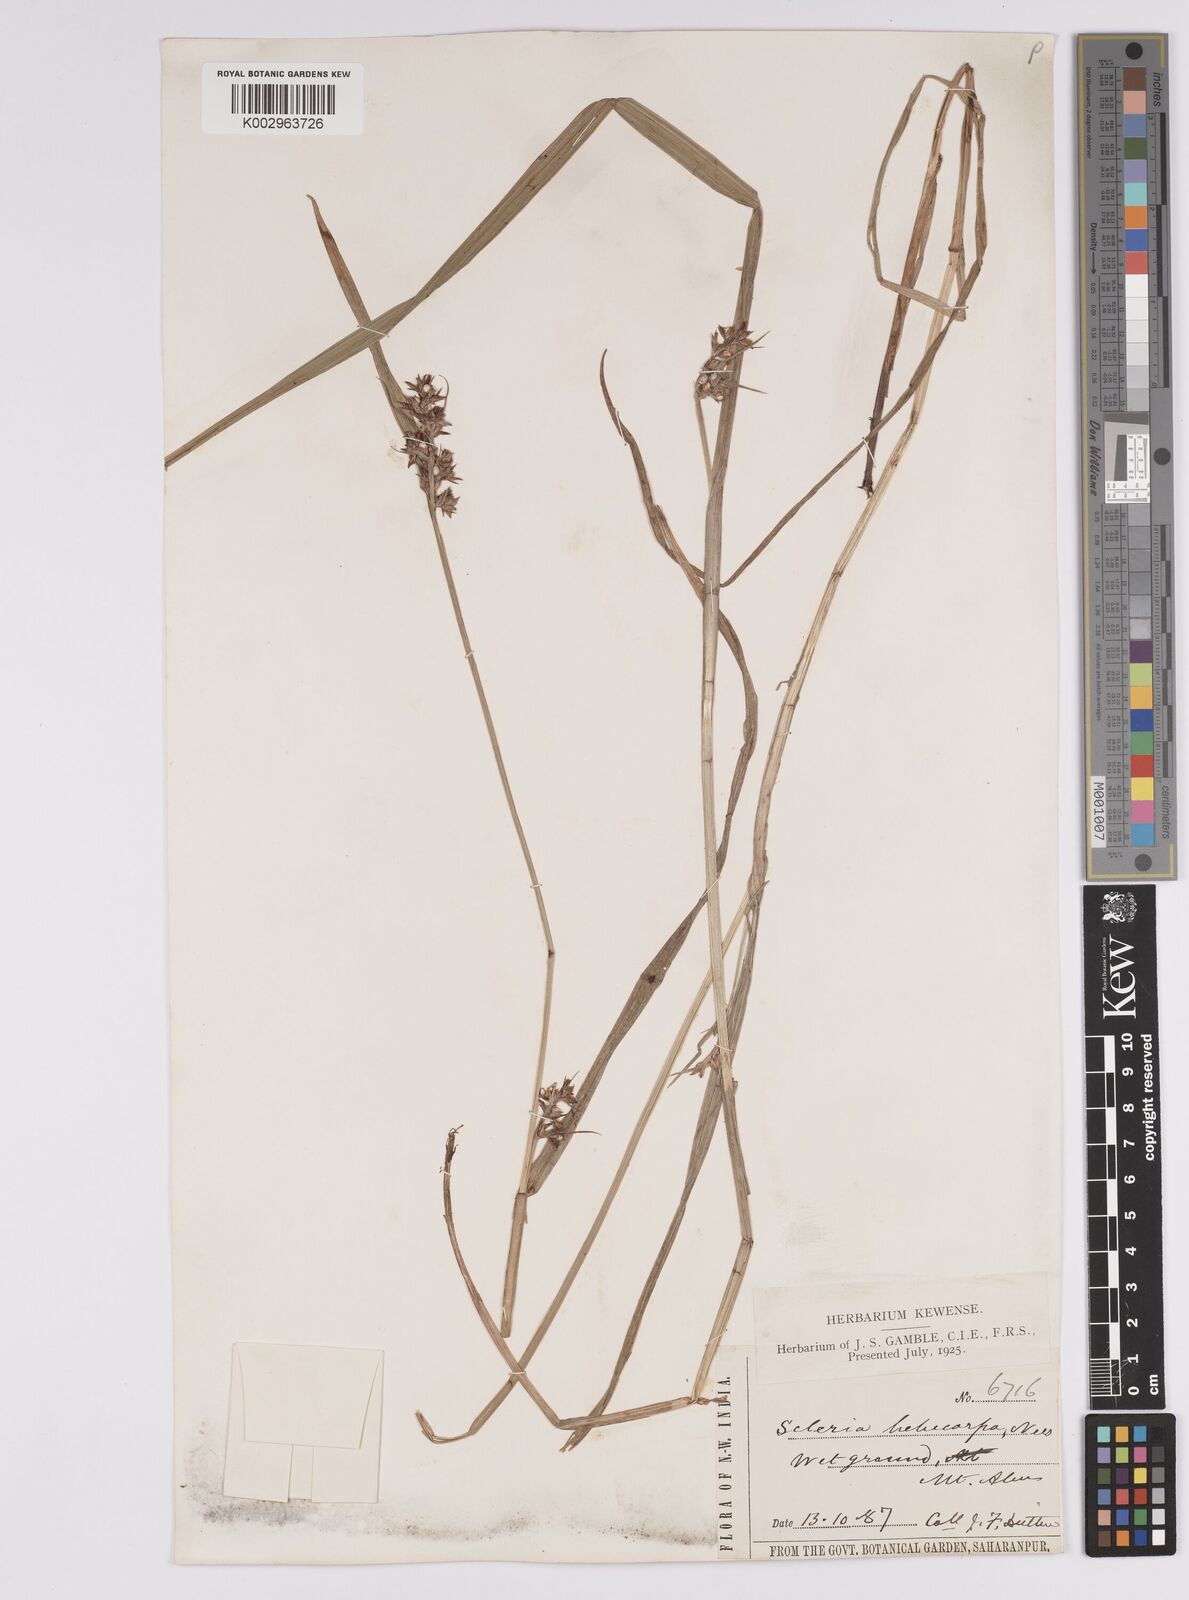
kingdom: Plantae
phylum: Tracheophyta
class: Liliopsida
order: Poales
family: Cyperaceae
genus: Scleria
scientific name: Scleria levis
